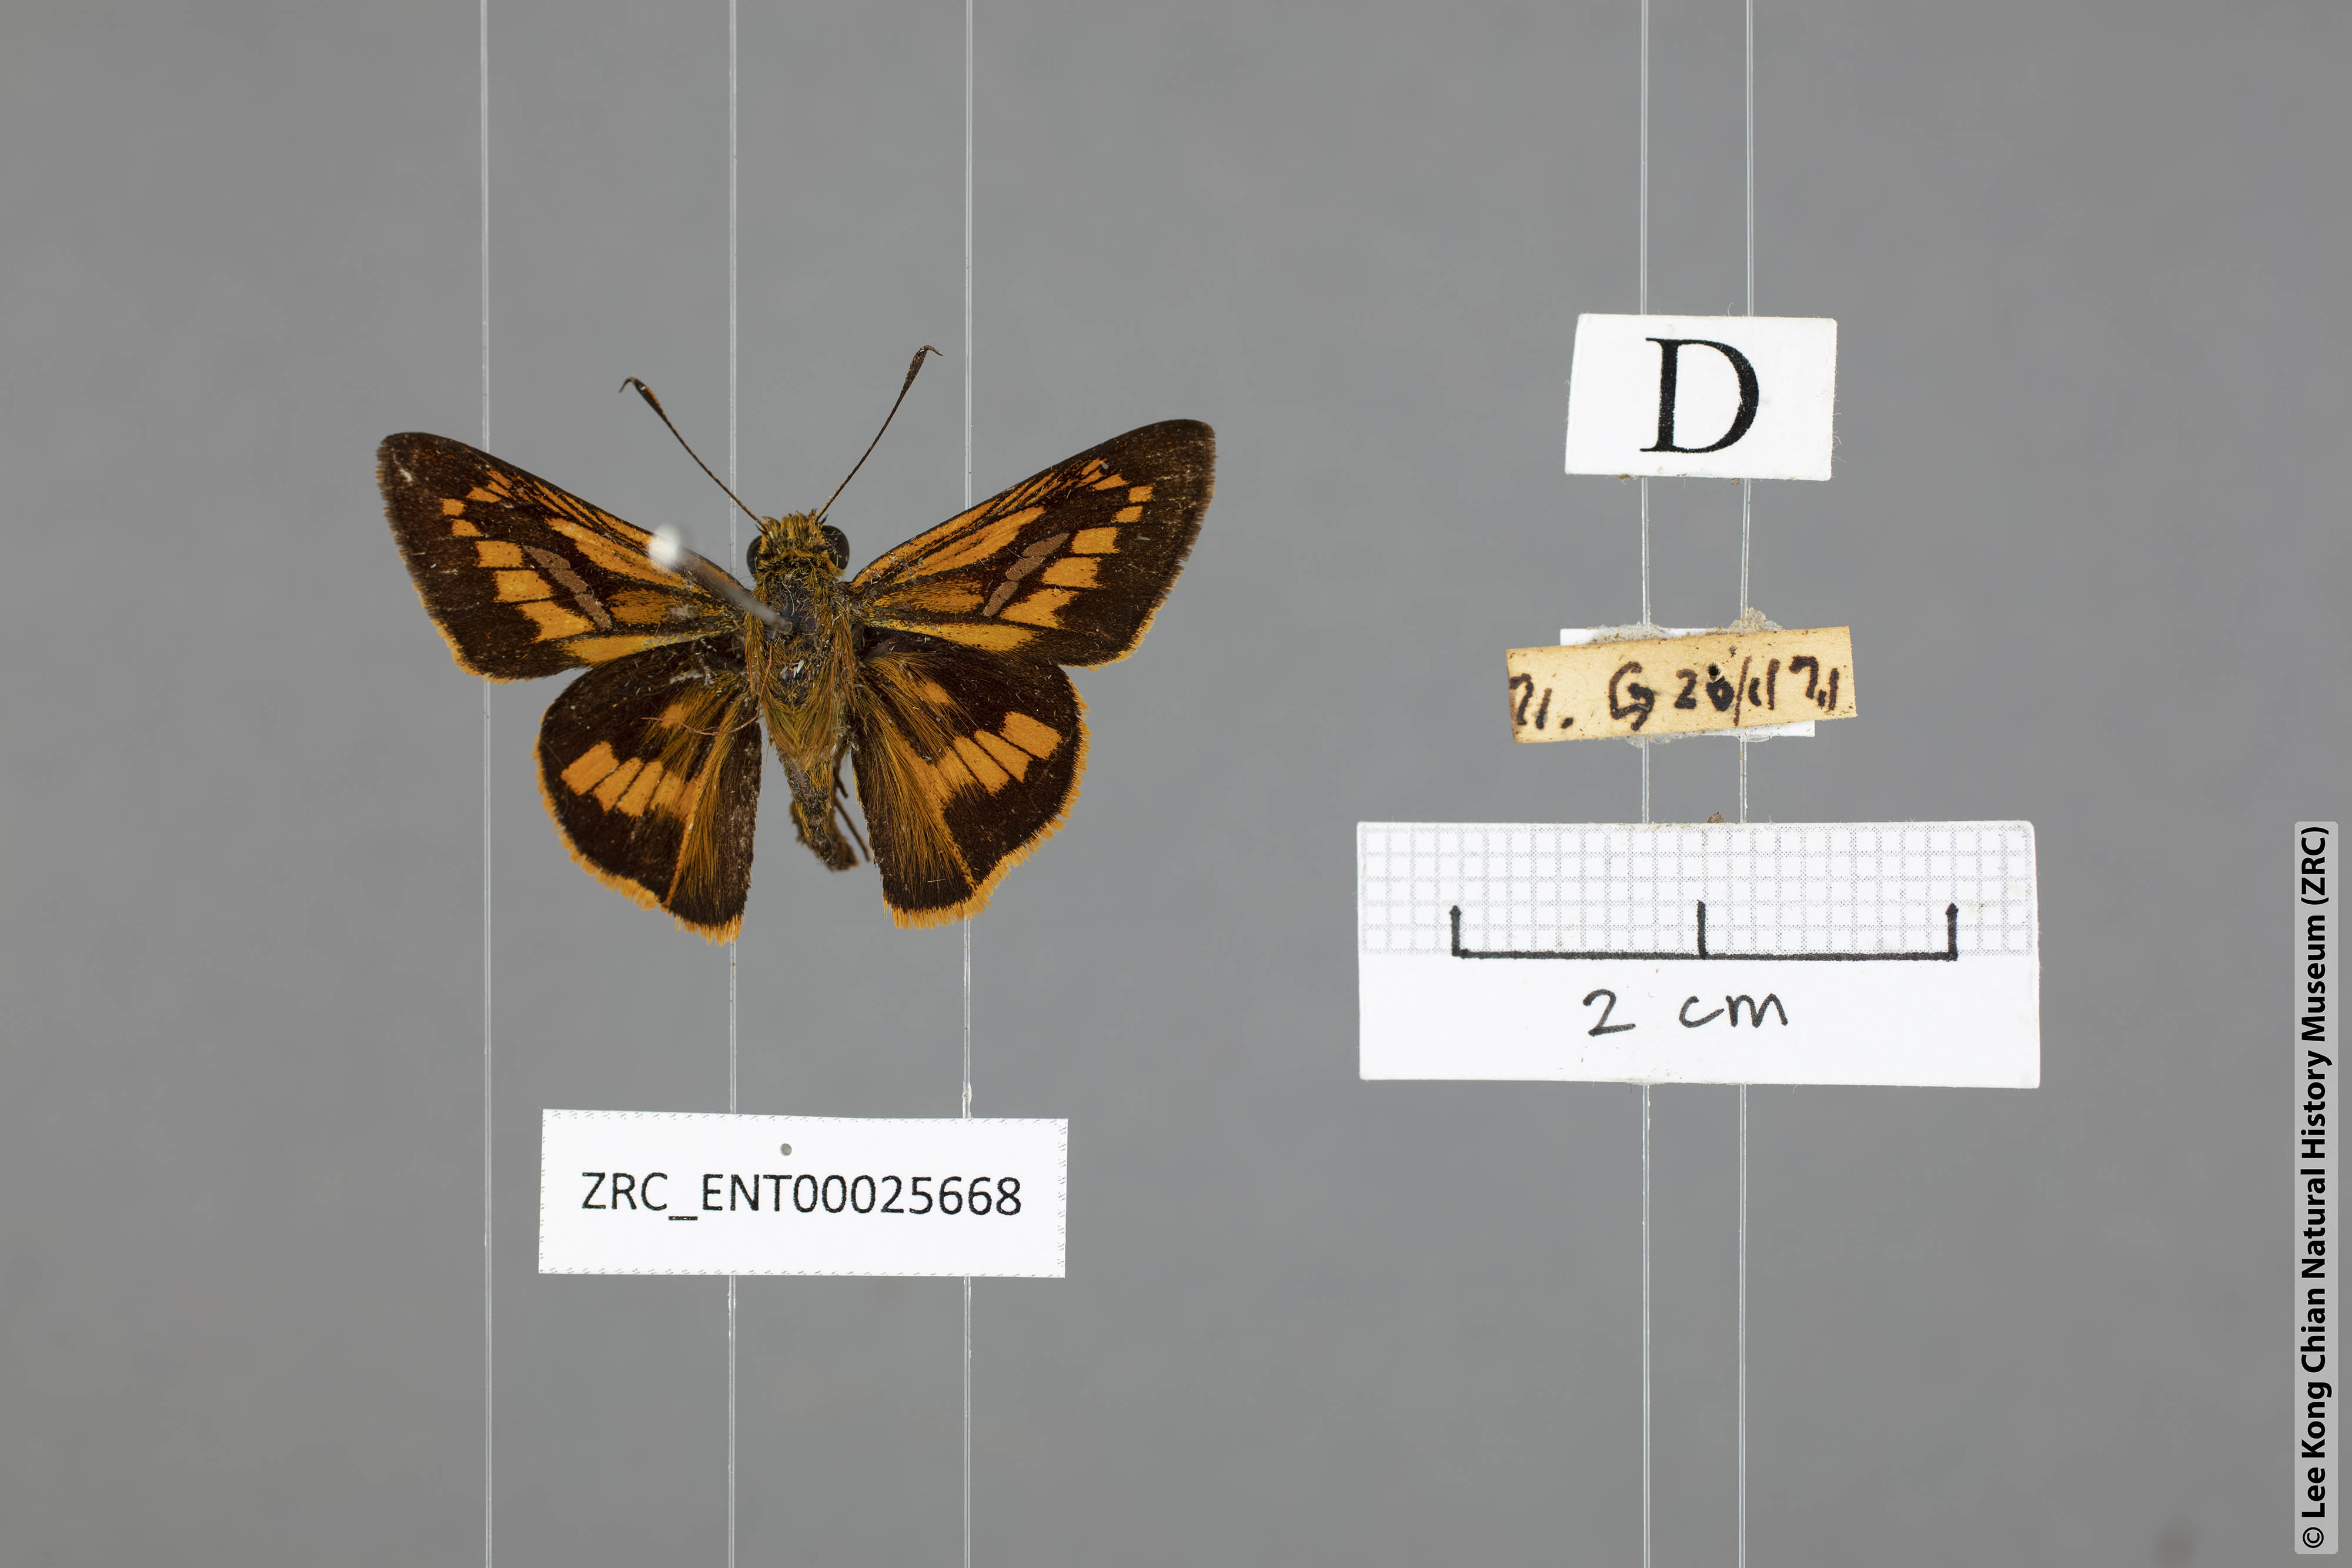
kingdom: Animalia
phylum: Arthropoda
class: Insecta
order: Lepidoptera
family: Hesperiidae
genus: Telicota
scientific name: Telicota hilda
